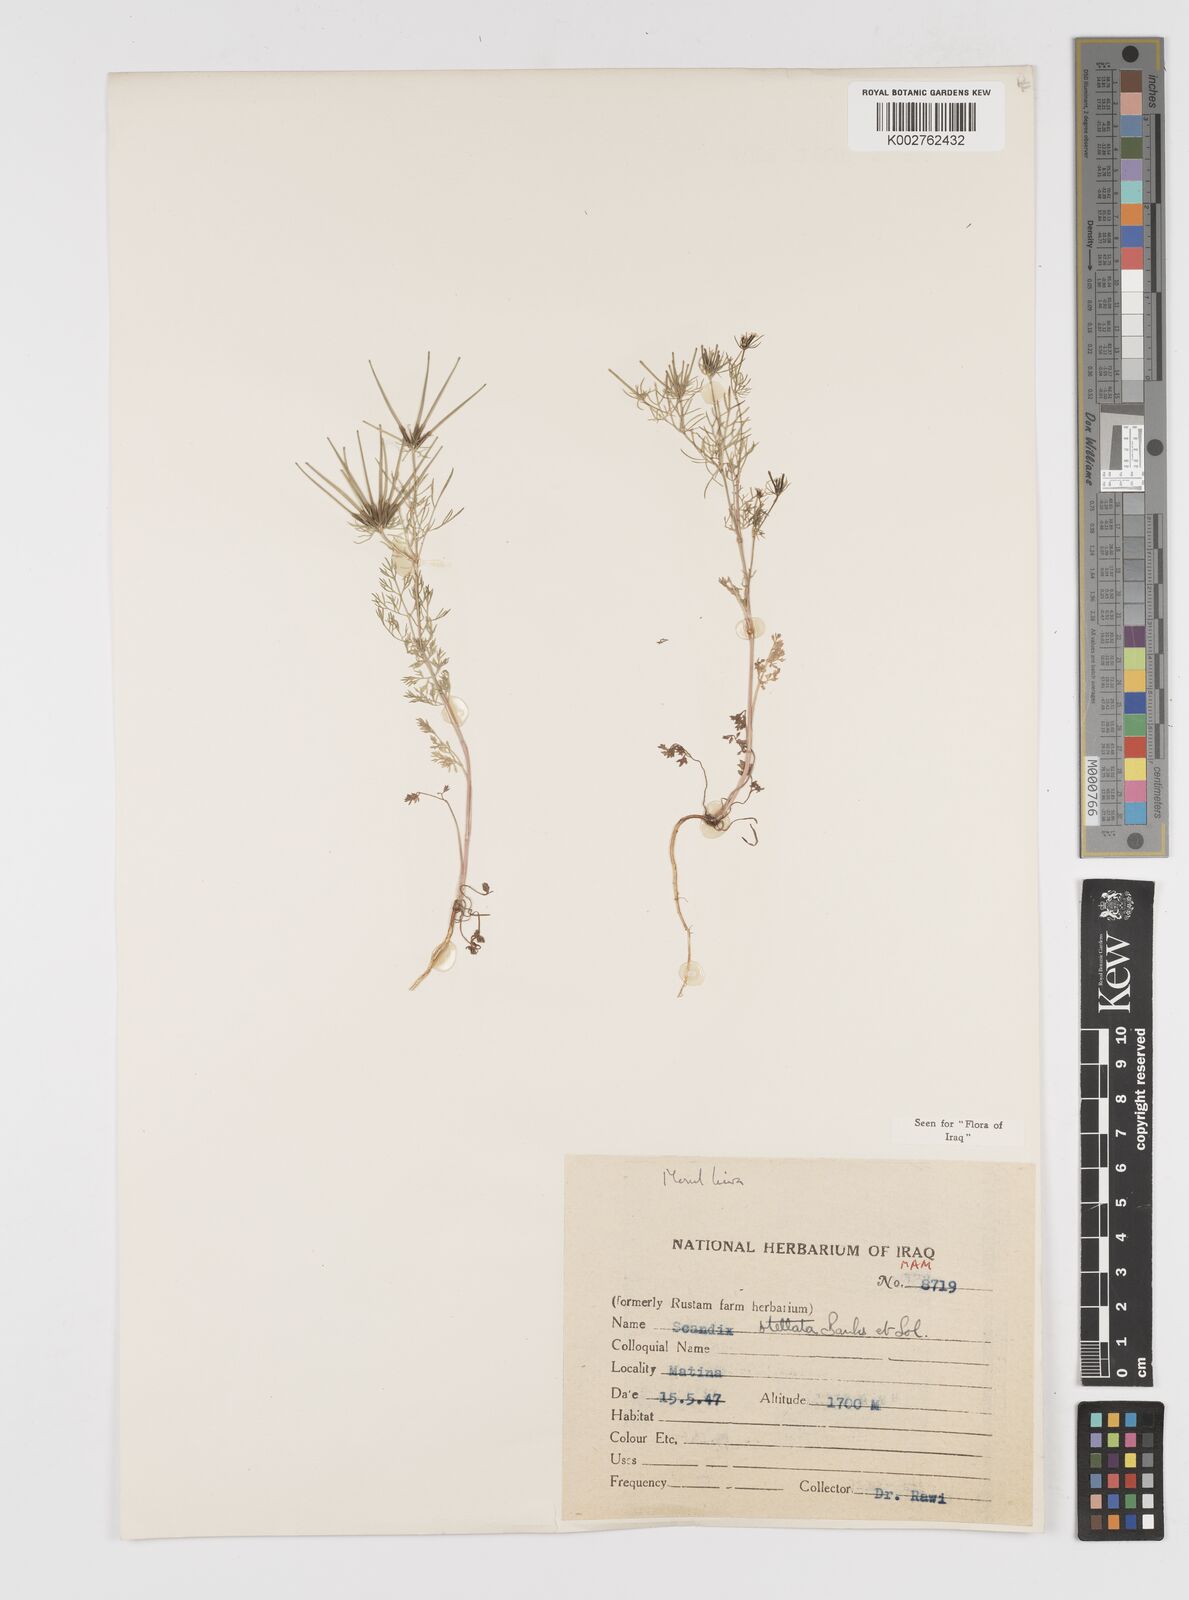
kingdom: Plantae
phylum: Tracheophyta
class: Magnoliopsida
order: Apiales
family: Apiaceae
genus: Scandix
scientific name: Scandix stellata
